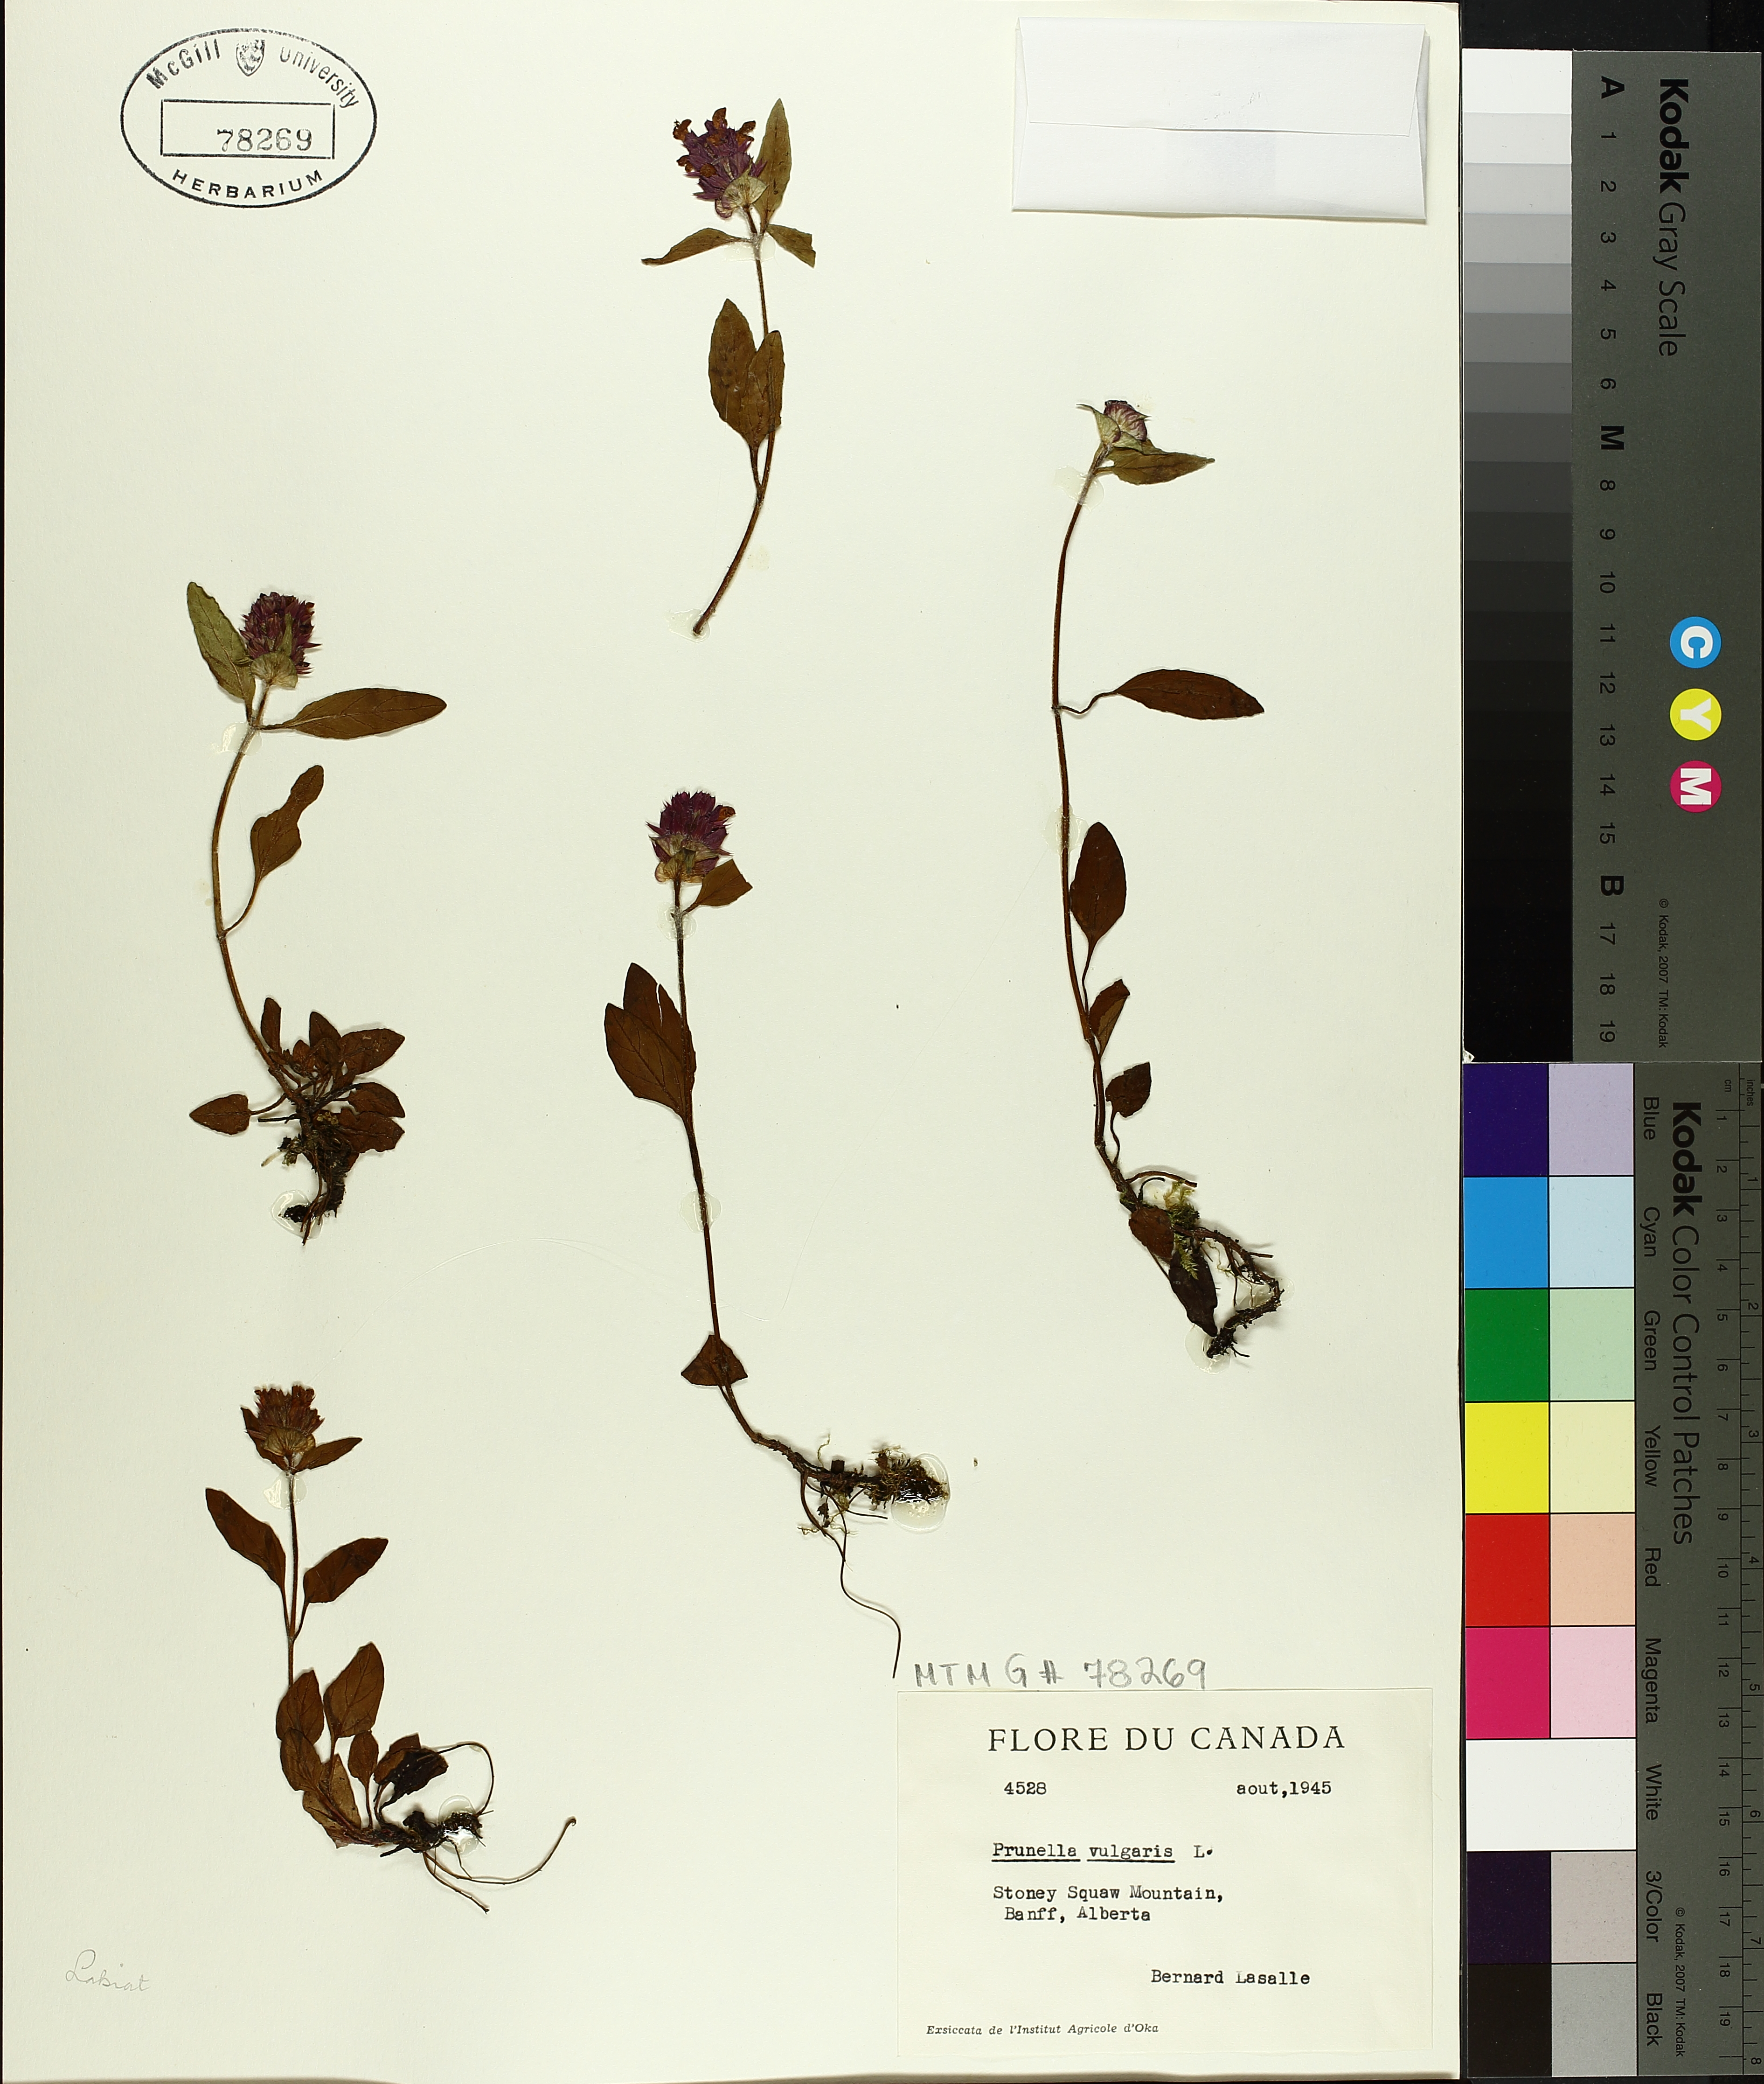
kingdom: Plantae
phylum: Tracheophyta
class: Magnoliopsida
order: Lamiales
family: Lamiaceae
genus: Prunella
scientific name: Prunella vulgaris
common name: Heal-all
